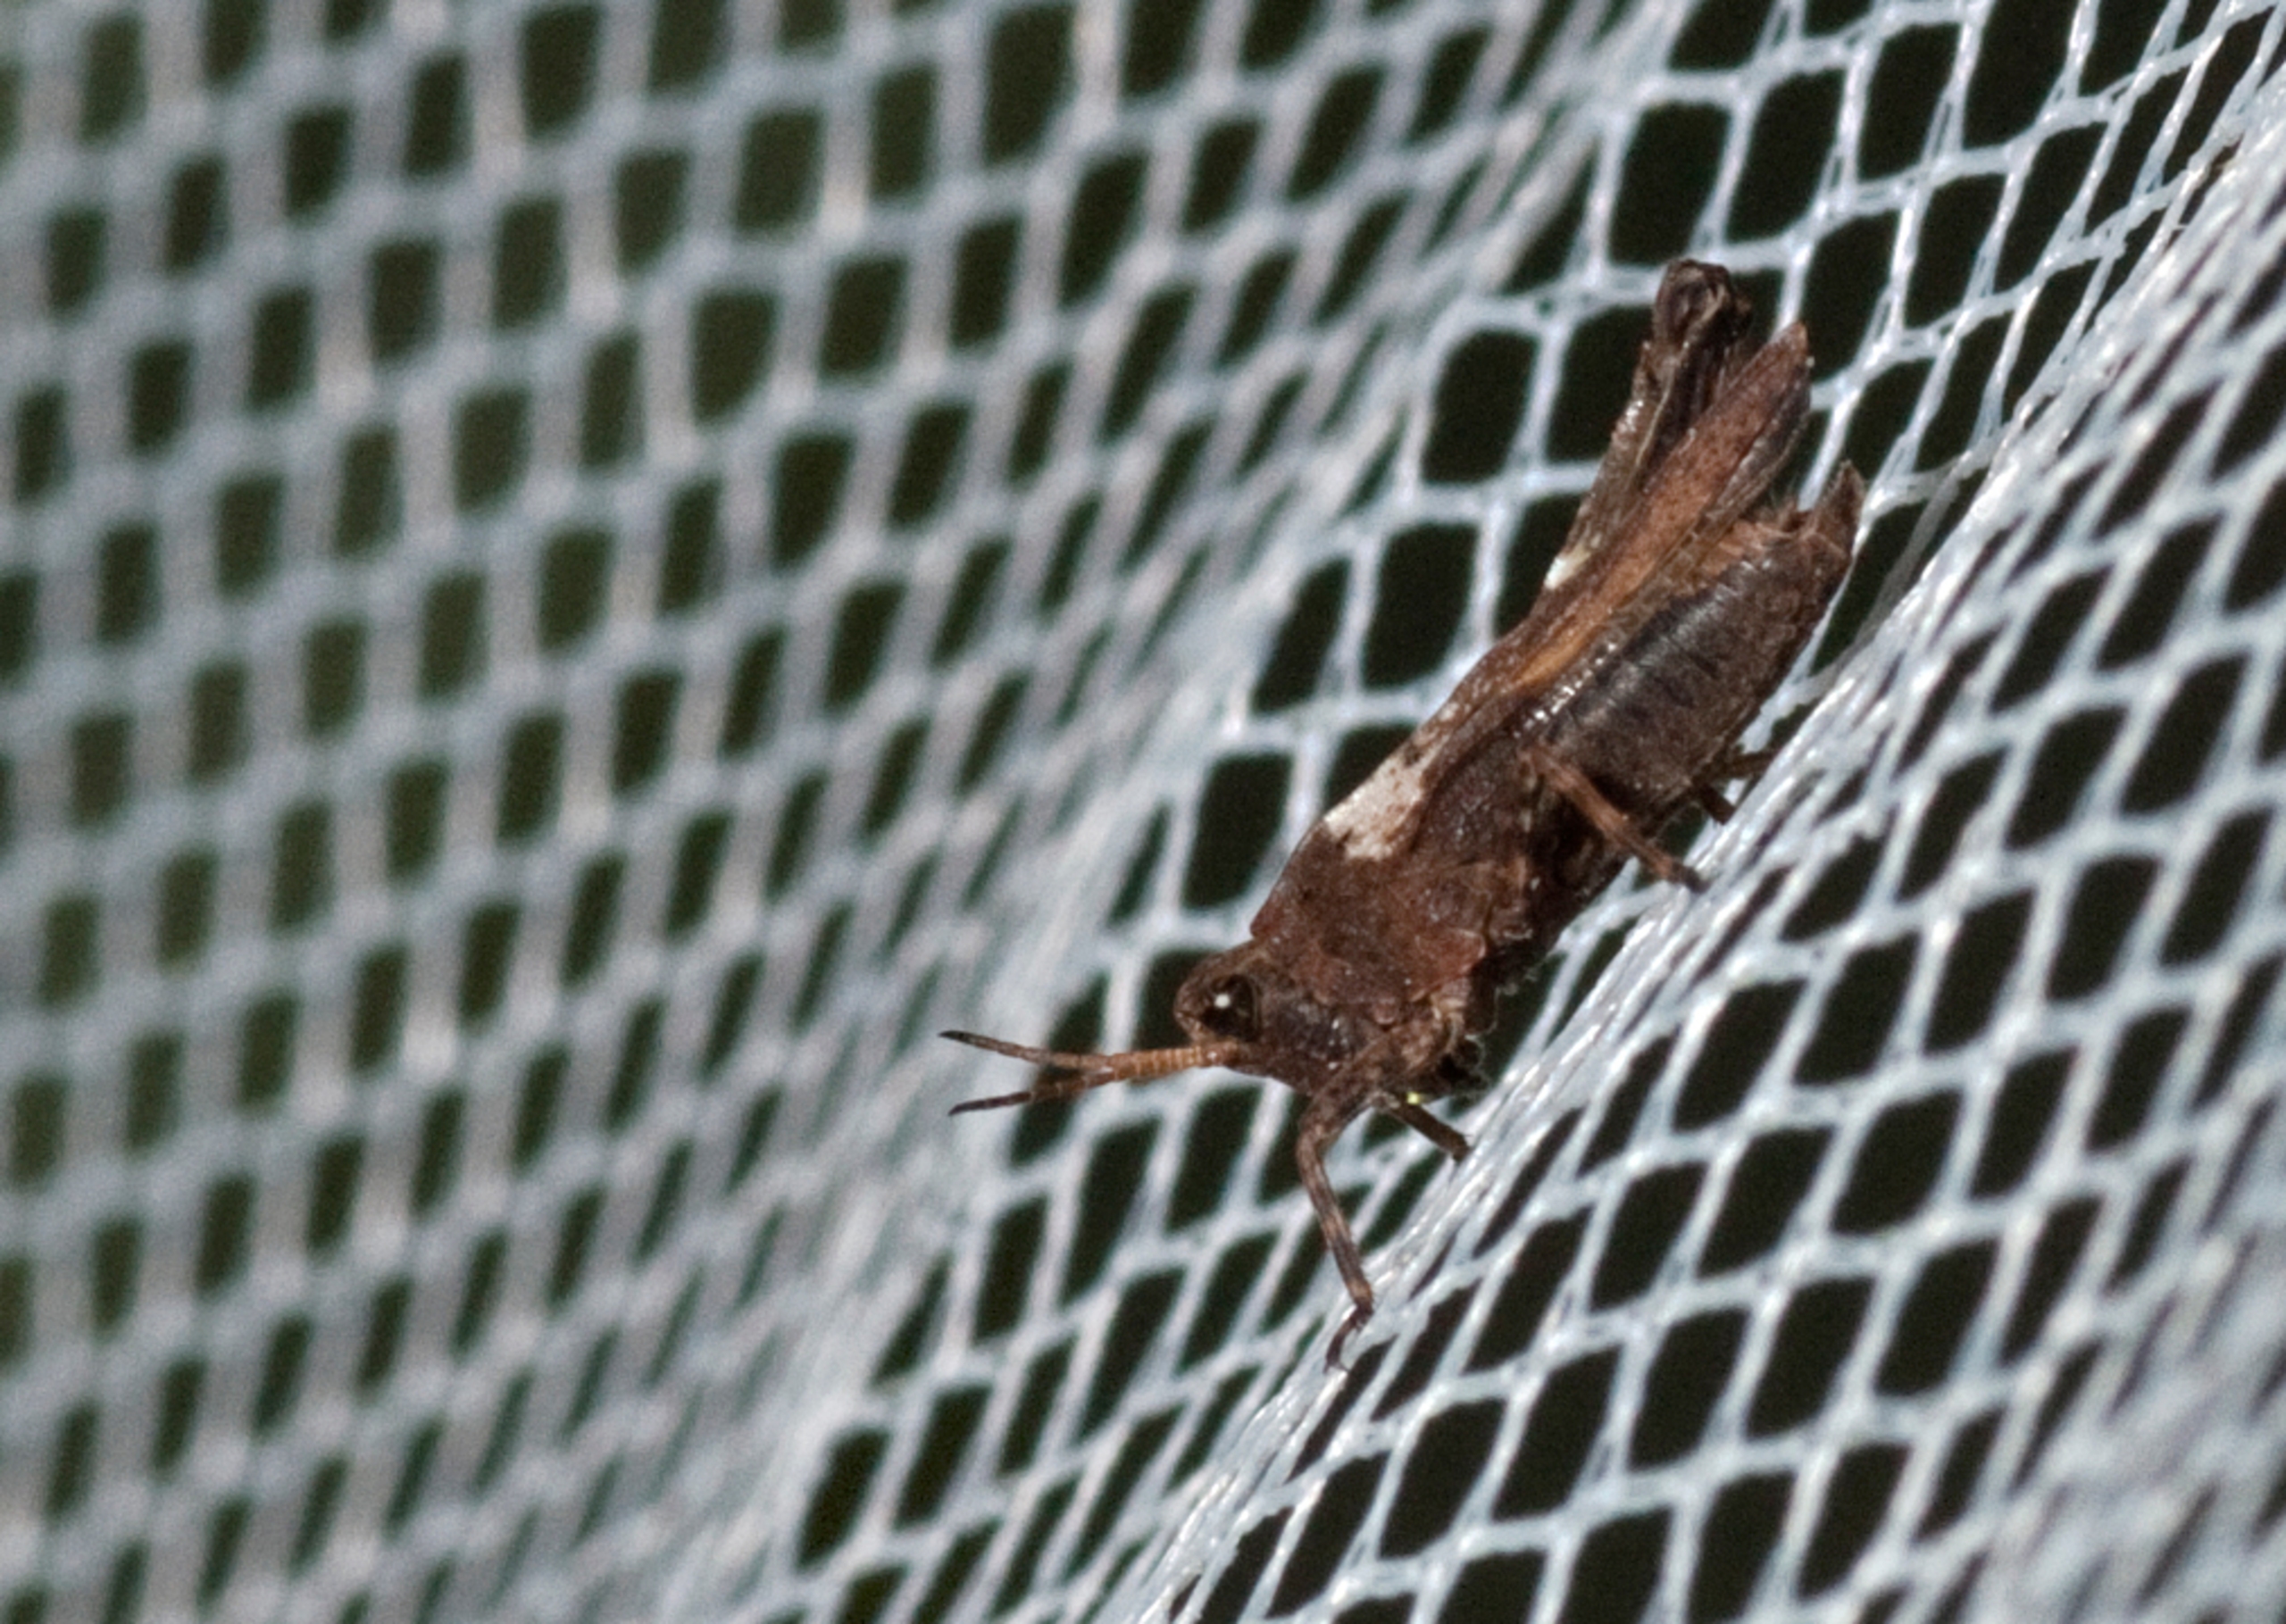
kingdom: Animalia
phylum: Arthropoda
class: Insecta
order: Orthoptera
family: Tetrigidae
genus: Tetrix
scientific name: Tetrix subulata
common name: Sump-torngræshoppe
